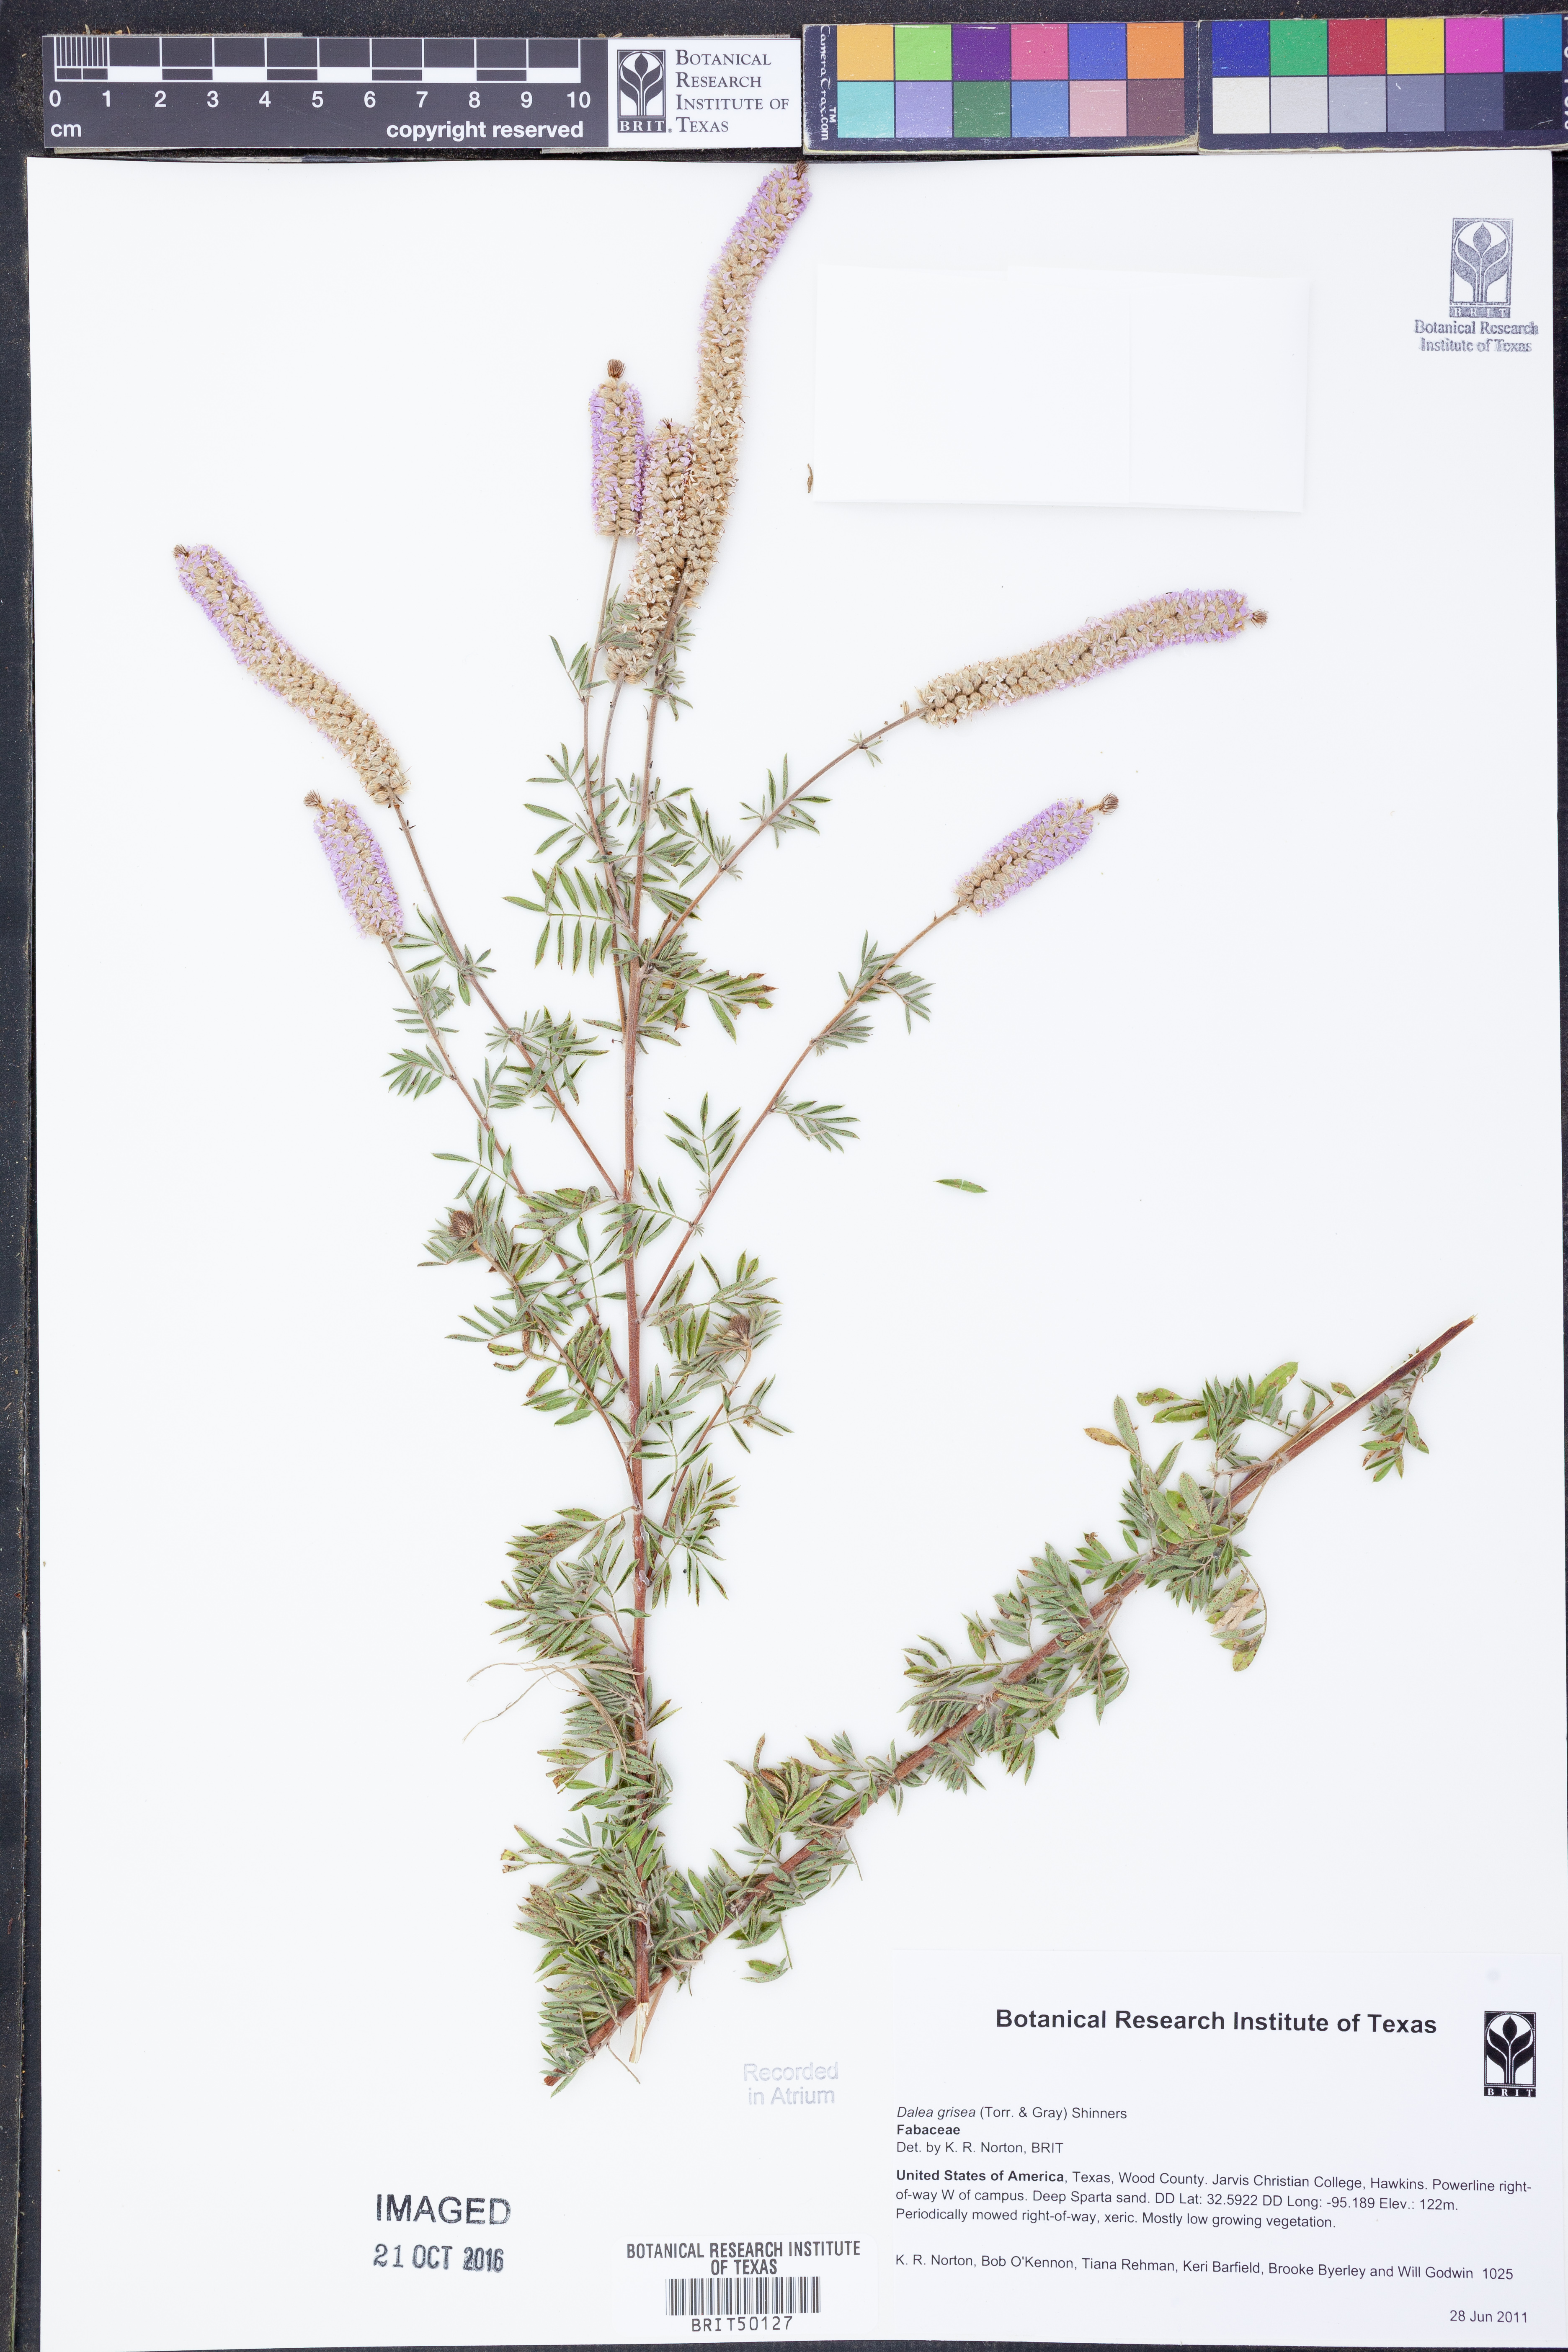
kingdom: Plantae
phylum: Tracheophyta
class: Magnoliopsida
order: Fabales
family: Fabaceae
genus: Dalea
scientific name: Dalea villosa
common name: Silky prairie-clover
